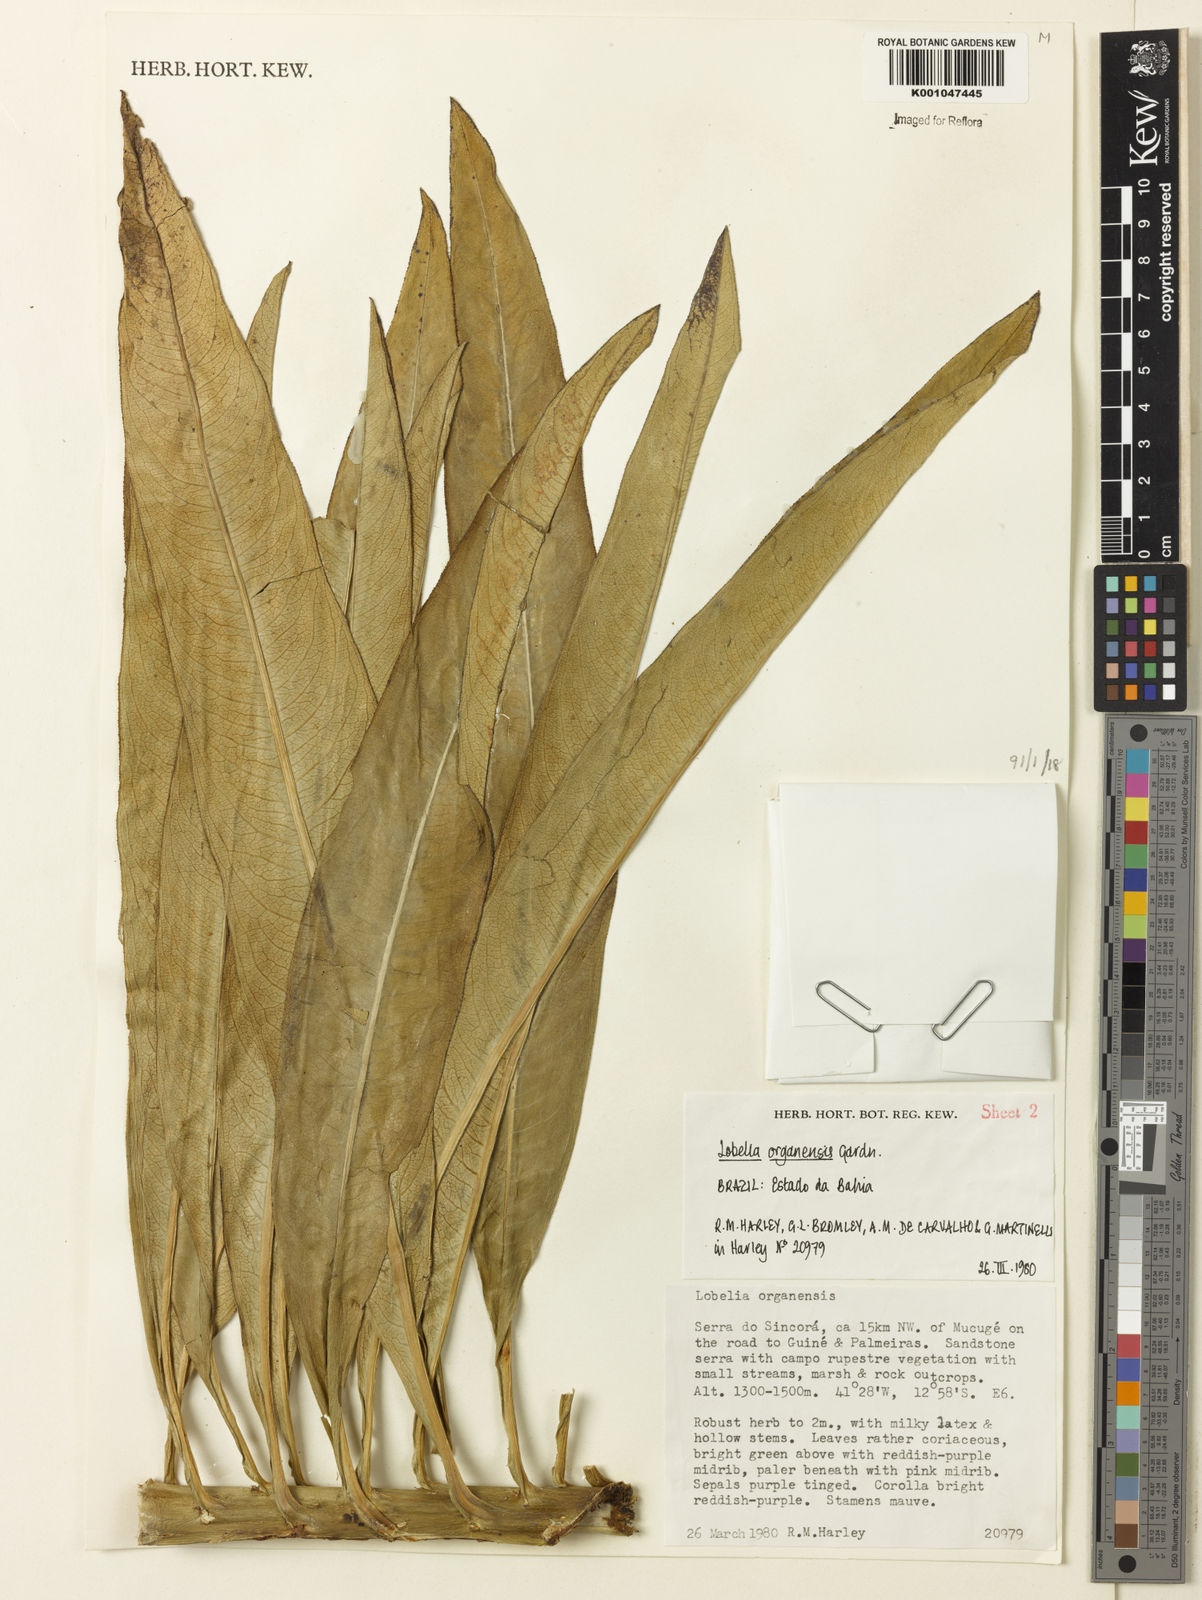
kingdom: Plantae
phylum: Tracheophyta
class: Magnoliopsida
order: Asterales
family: Campanulaceae
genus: Lobelia
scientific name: Lobelia organensis
